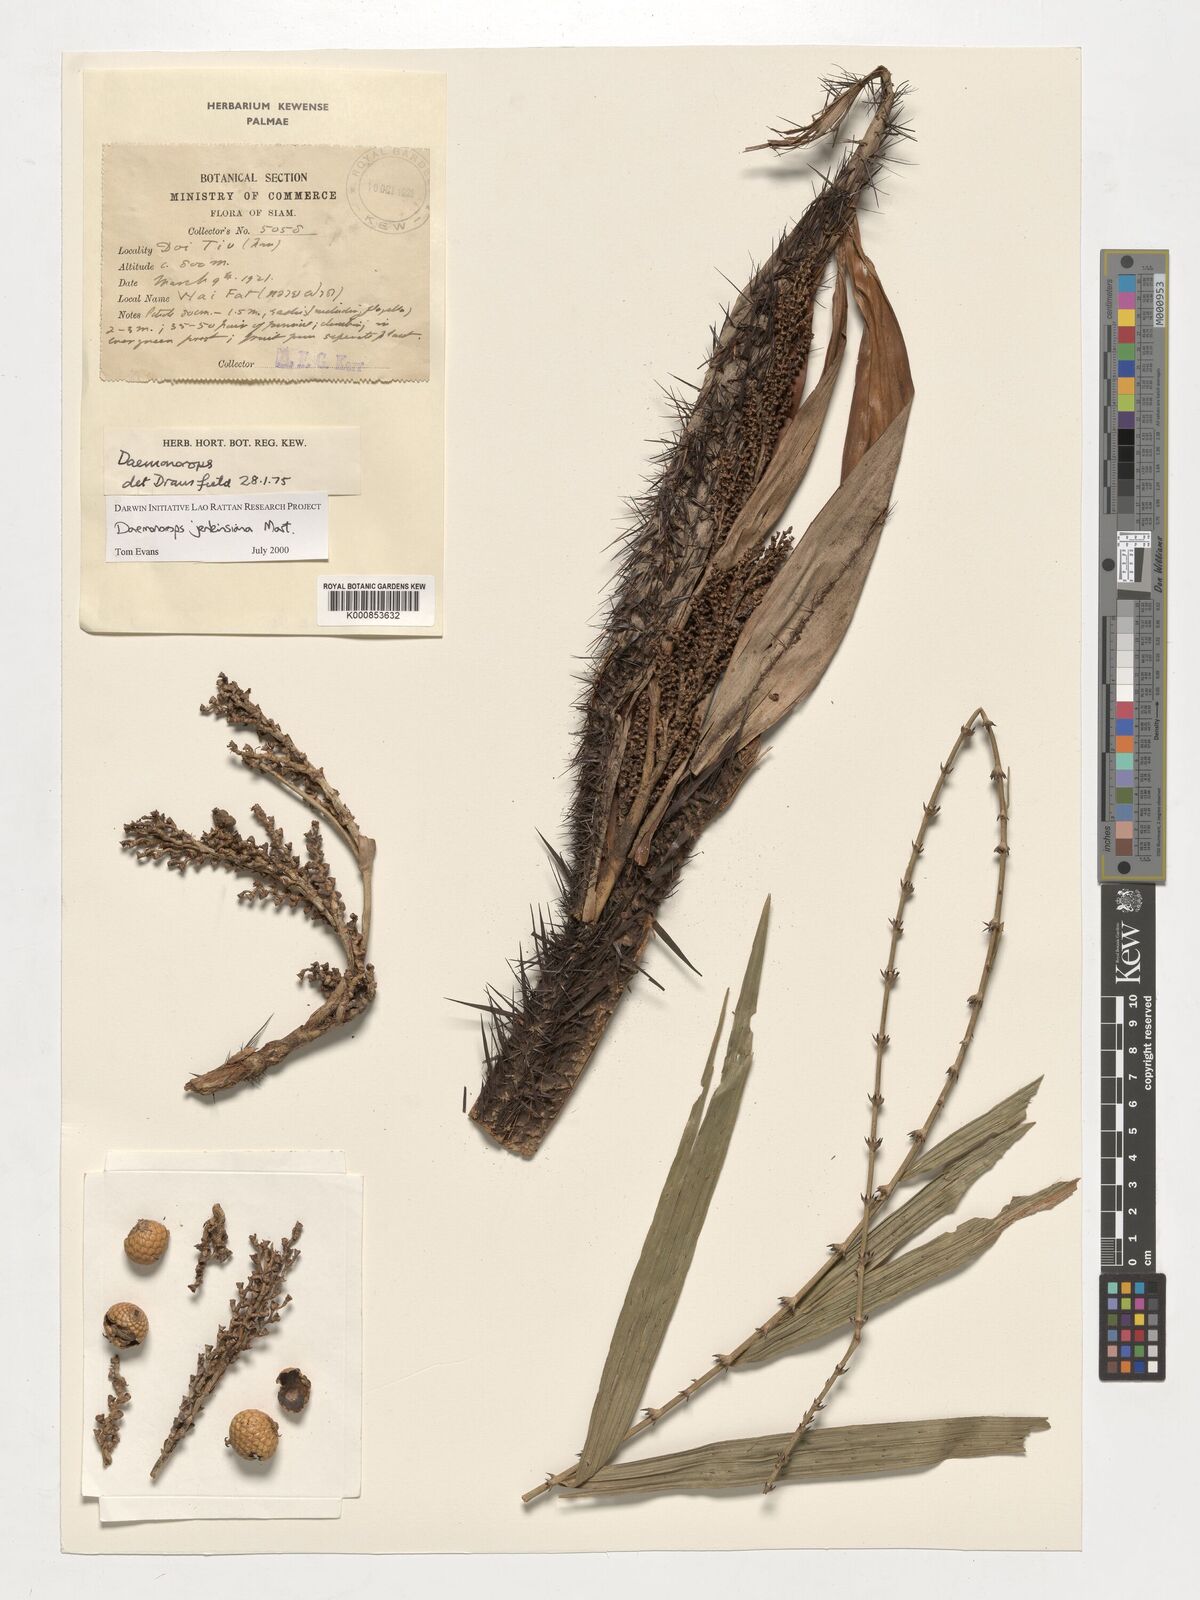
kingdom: Plantae
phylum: Tracheophyta
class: Liliopsida
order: Arecales
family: Arecaceae
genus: Calamus
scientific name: Calamus melanochaetes
